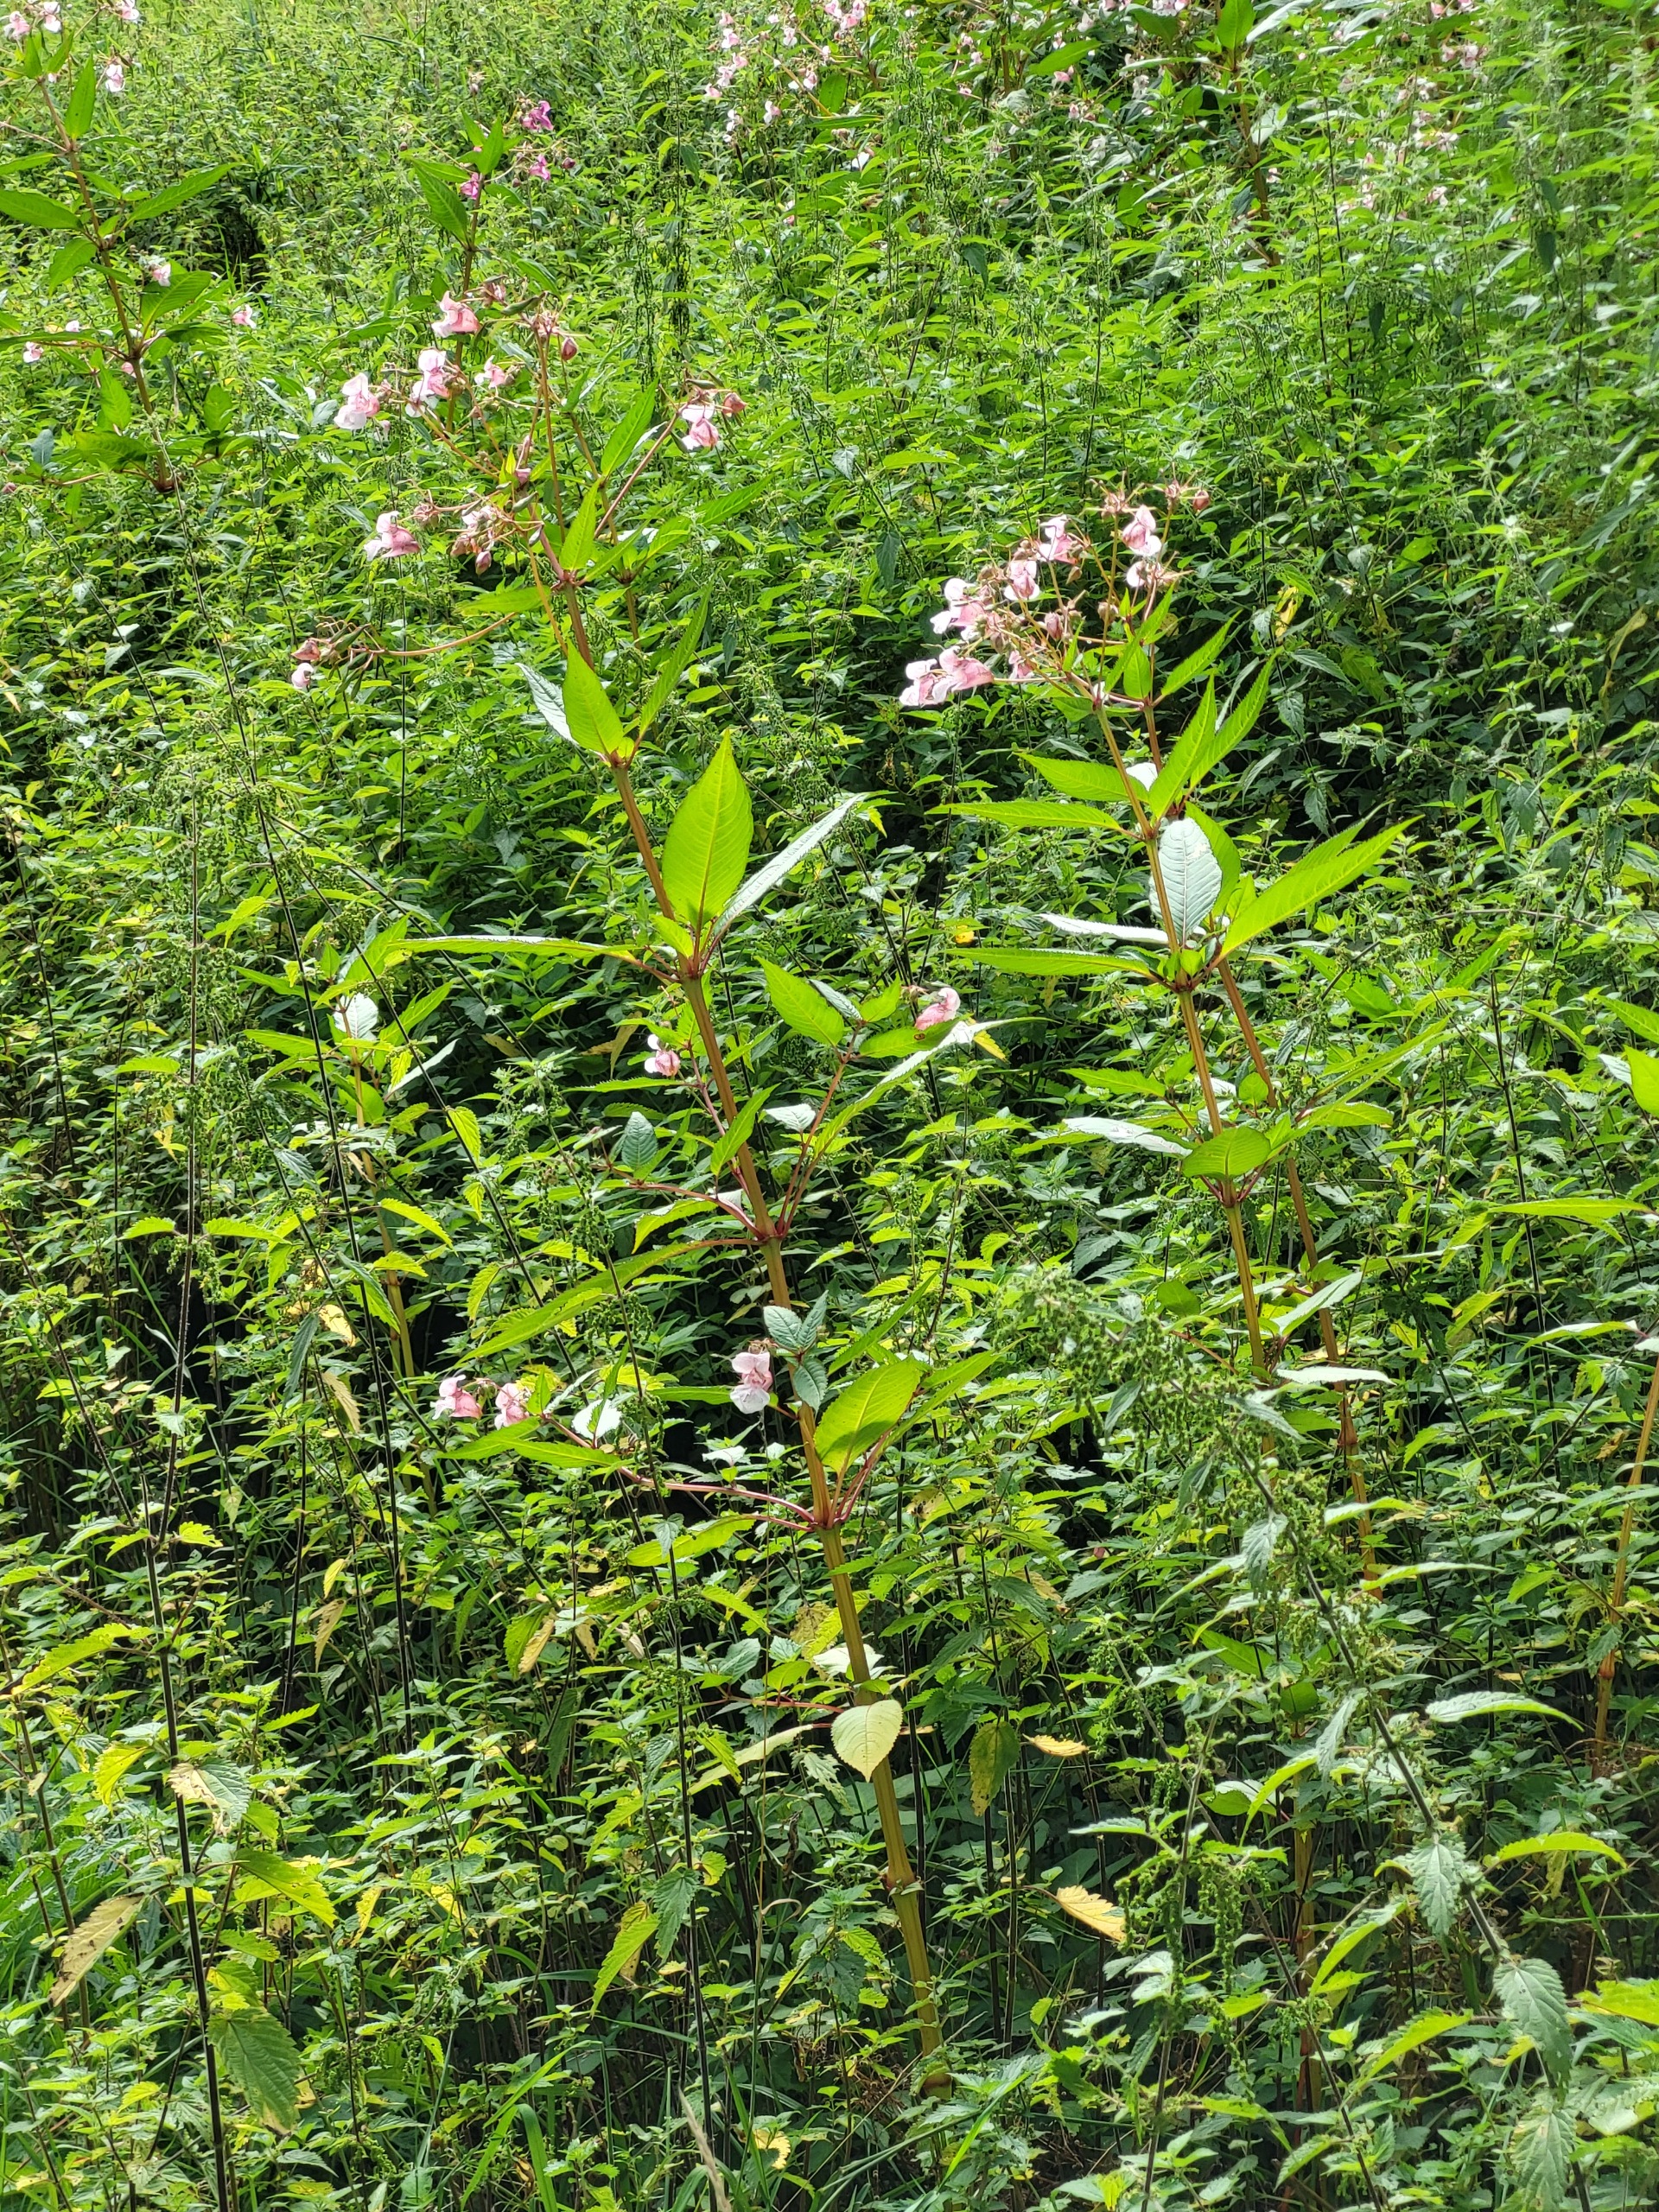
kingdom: Plantae
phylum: Tracheophyta
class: Magnoliopsida
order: Ericales
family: Balsaminaceae
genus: Impatiens
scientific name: Impatiens glandulifera
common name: Kæmpe-balsamin
